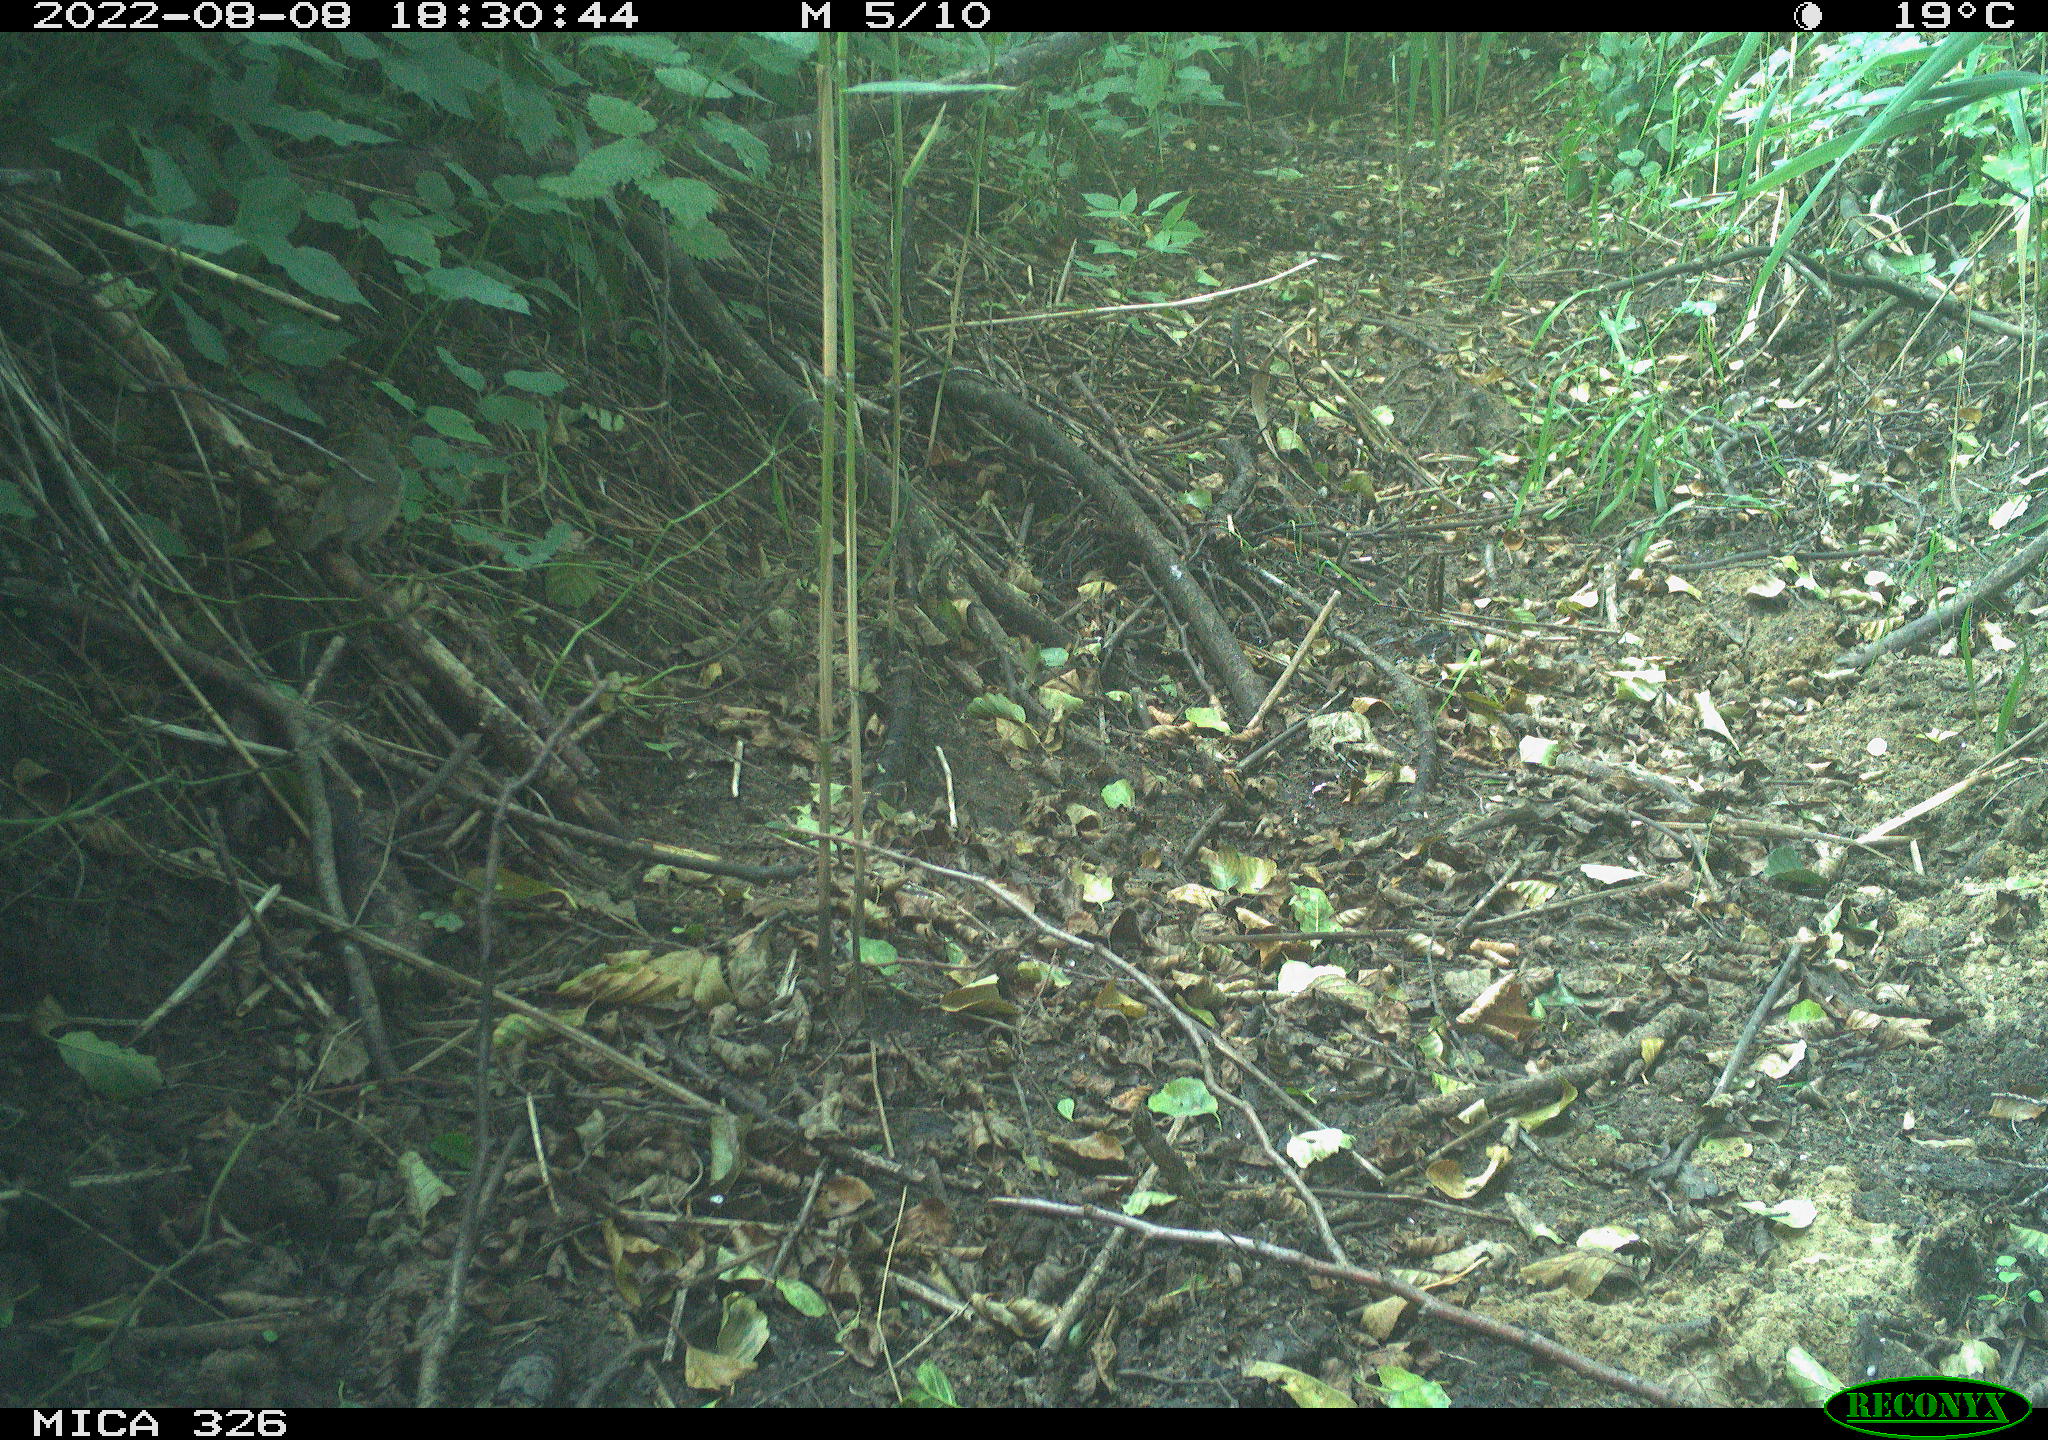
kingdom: Animalia
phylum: Chordata
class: Aves
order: Passeriformes
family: Muscicapidae
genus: Erithacus
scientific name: Erithacus rubecula
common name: European robin
